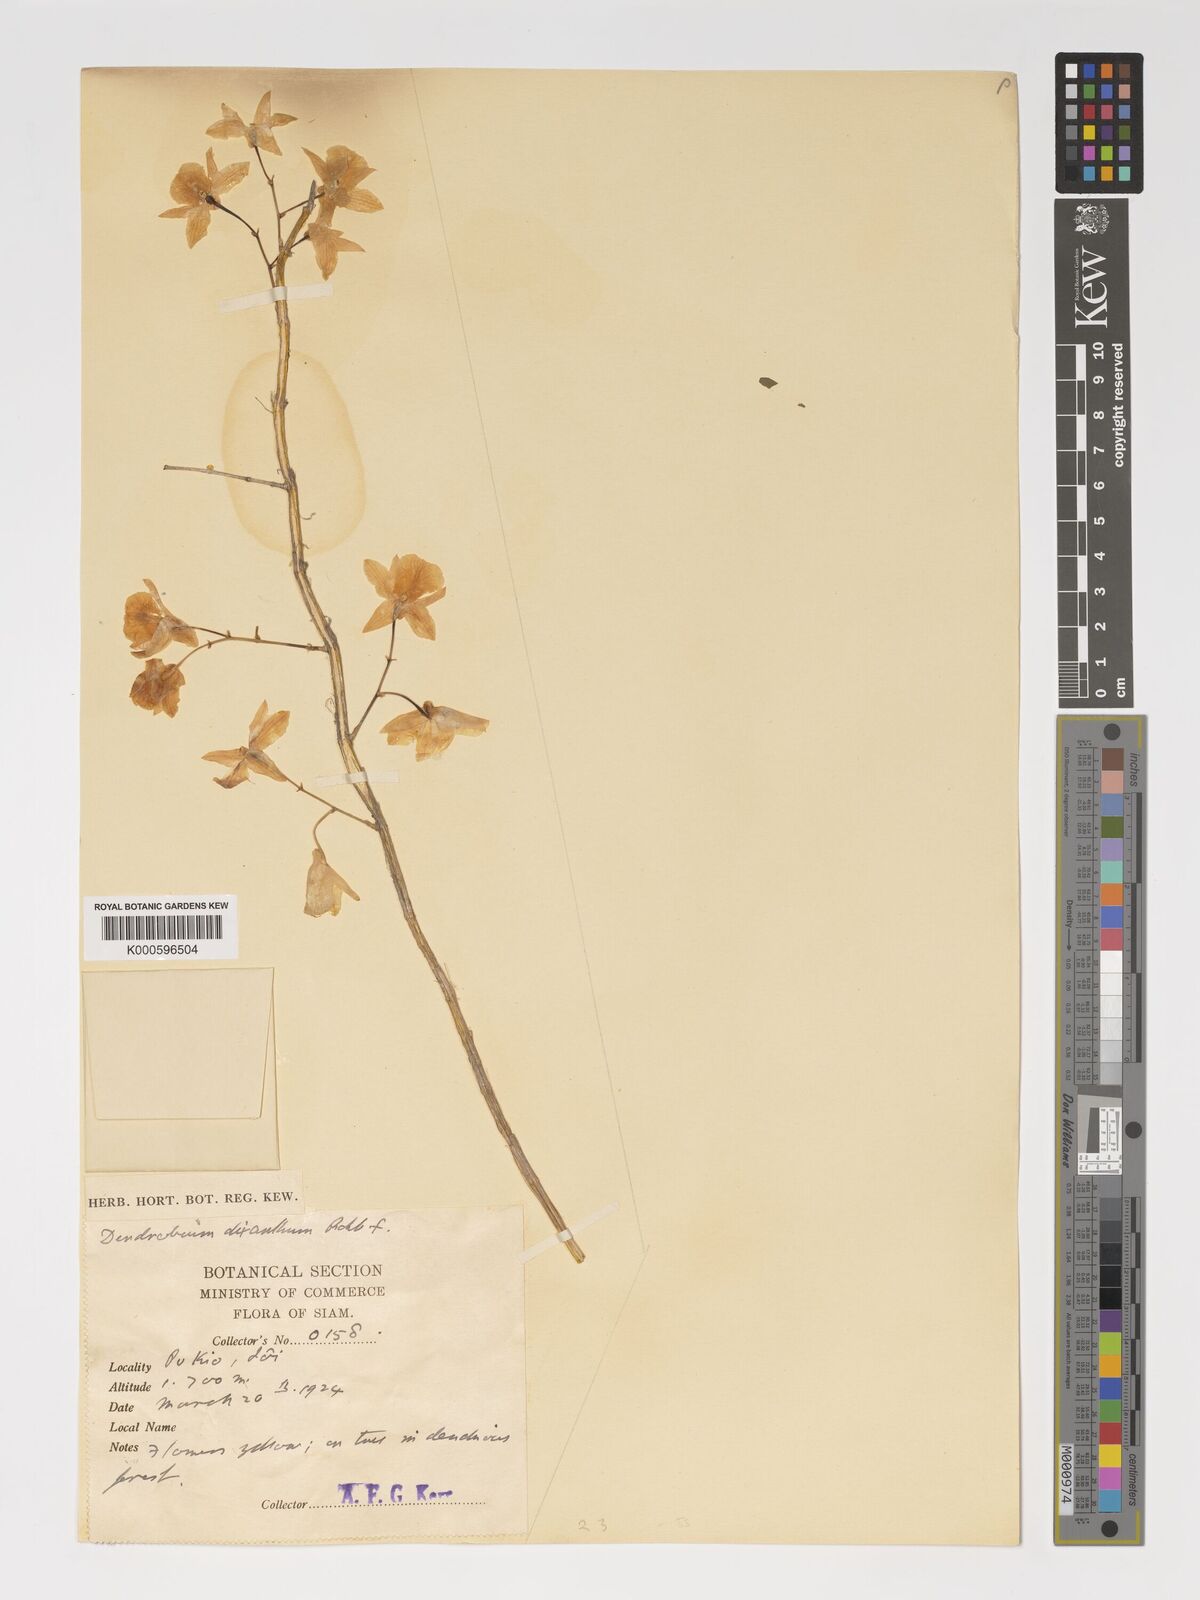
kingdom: Plantae
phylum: Tracheophyta
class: Liliopsida
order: Asparagales
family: Orchidaceae
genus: Dendrobium
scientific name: Dendrobium dixanthum
